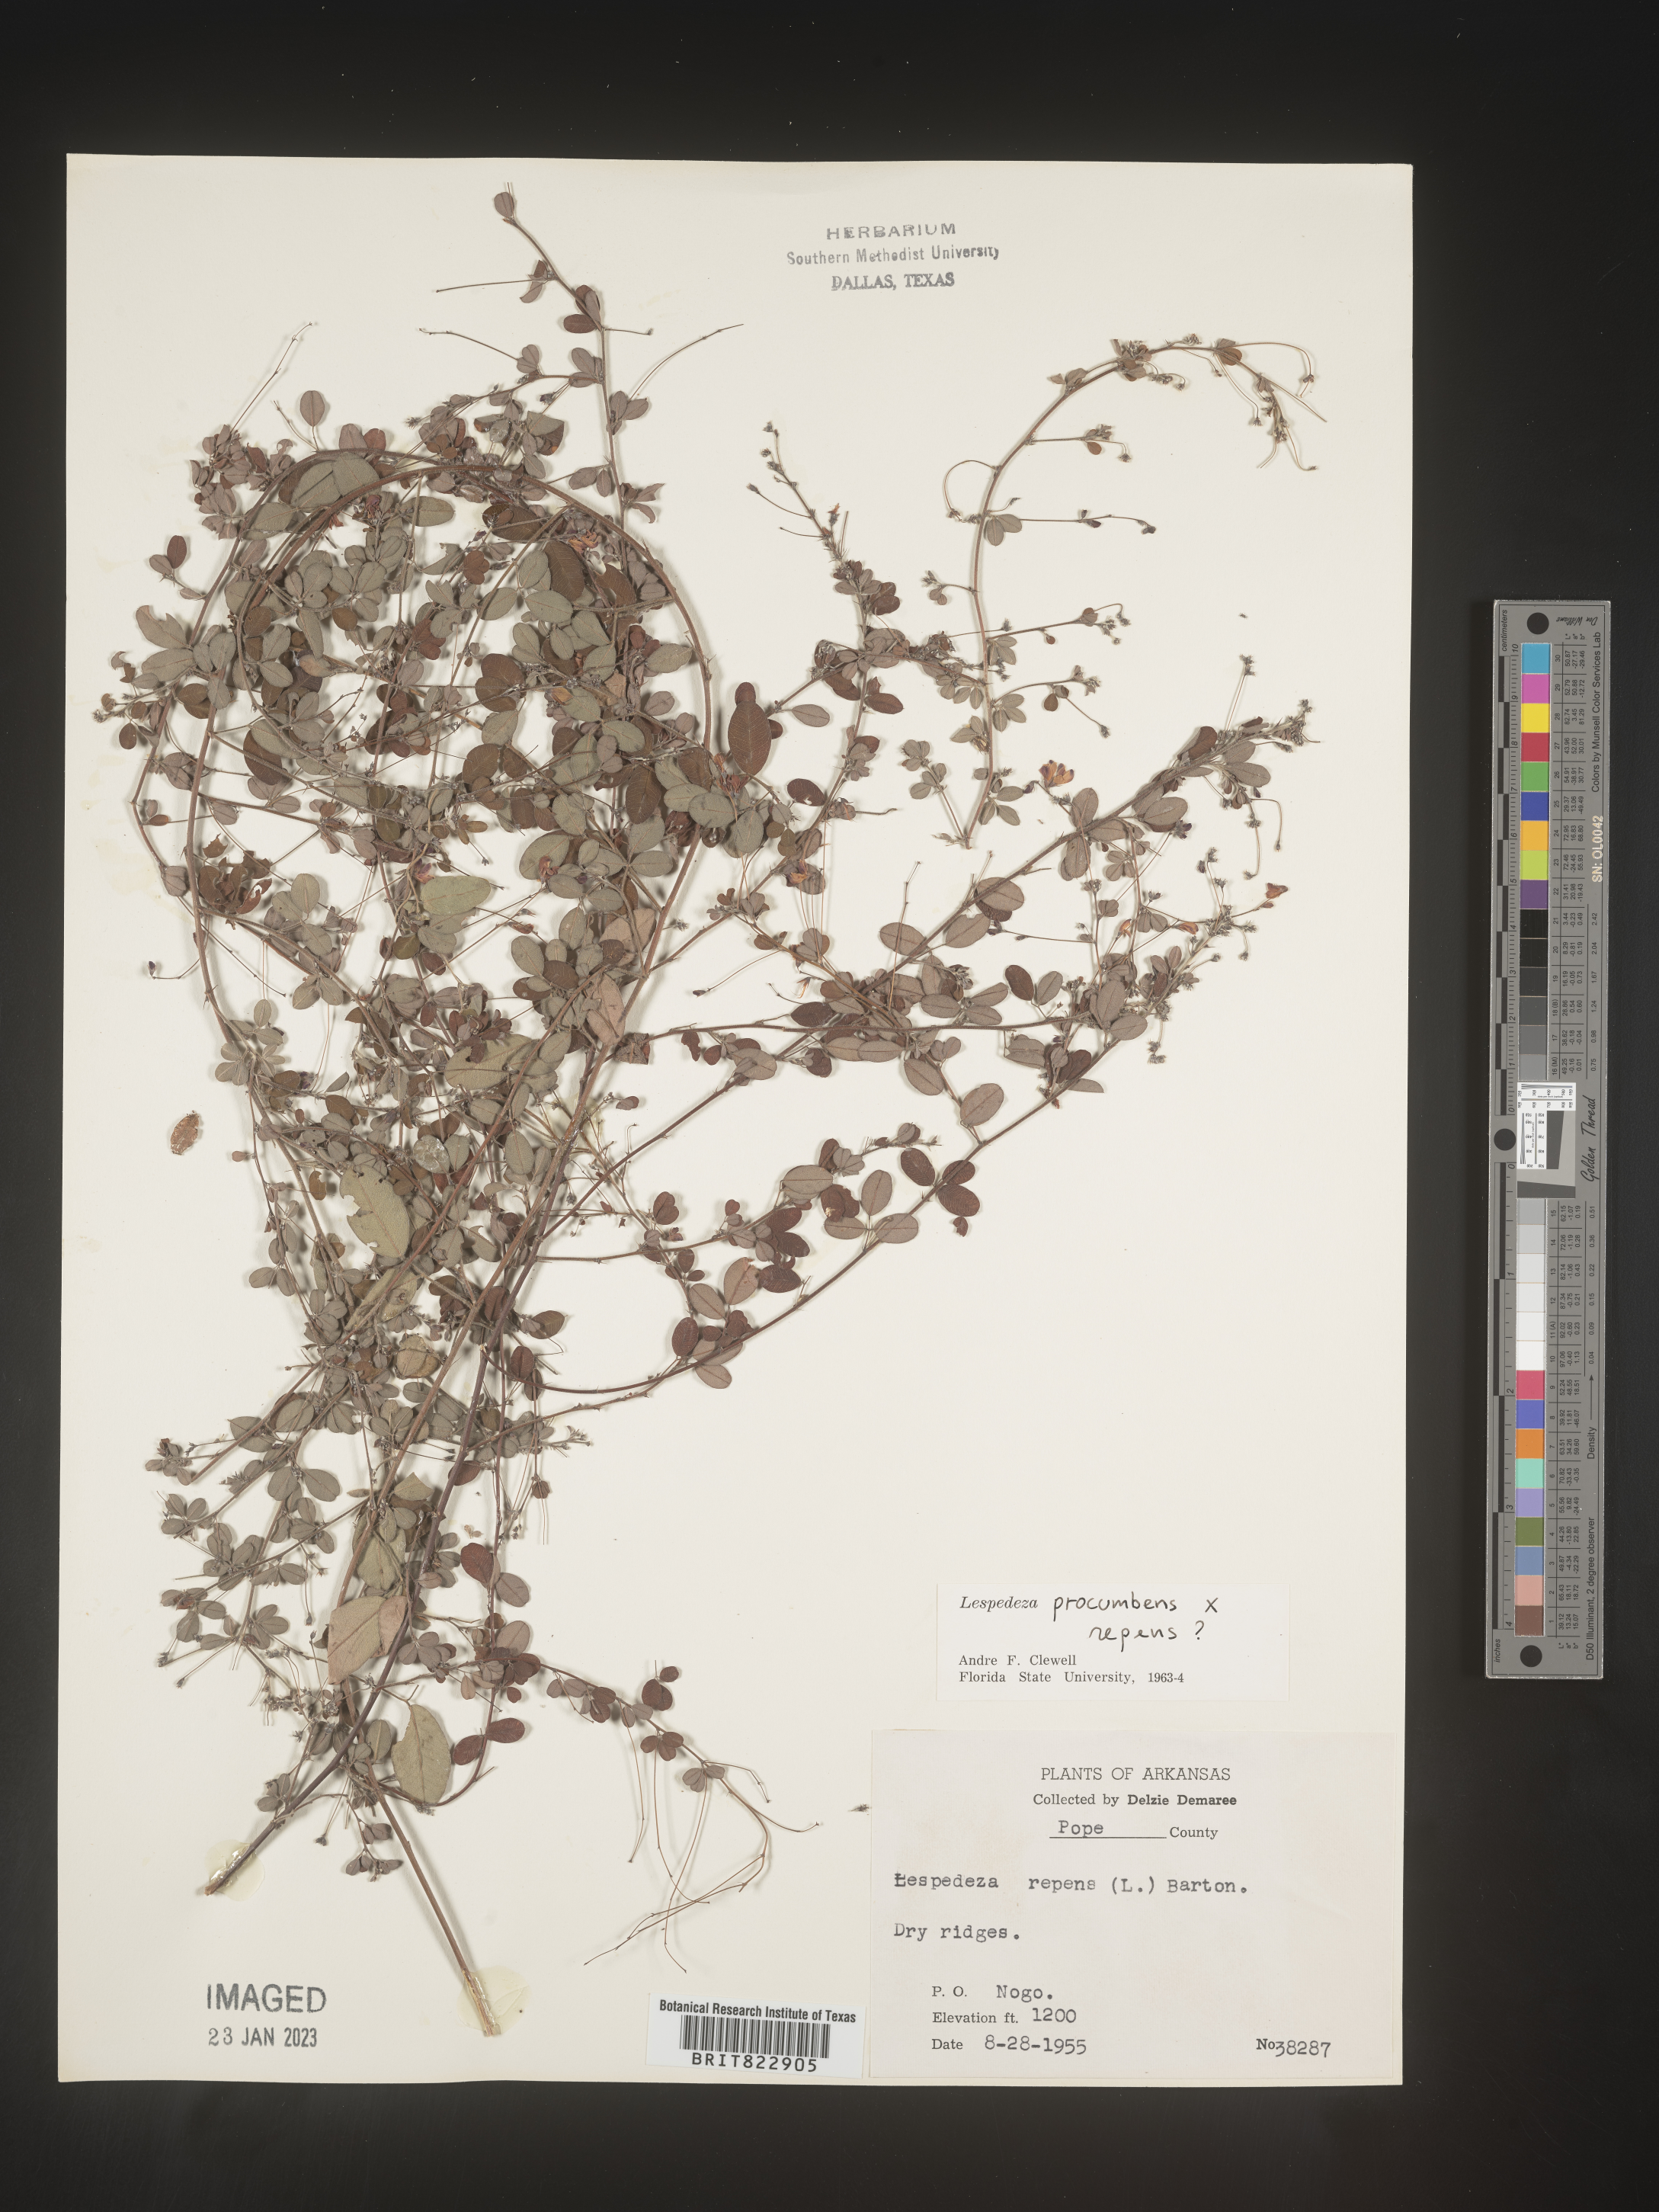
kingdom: Plantae
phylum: Tracheophyta
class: Magnoliopsida
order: Fabales
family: Fabaceae
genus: Lespedeza
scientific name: Lespedeza procumbens
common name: Downy trailing bush-clover
